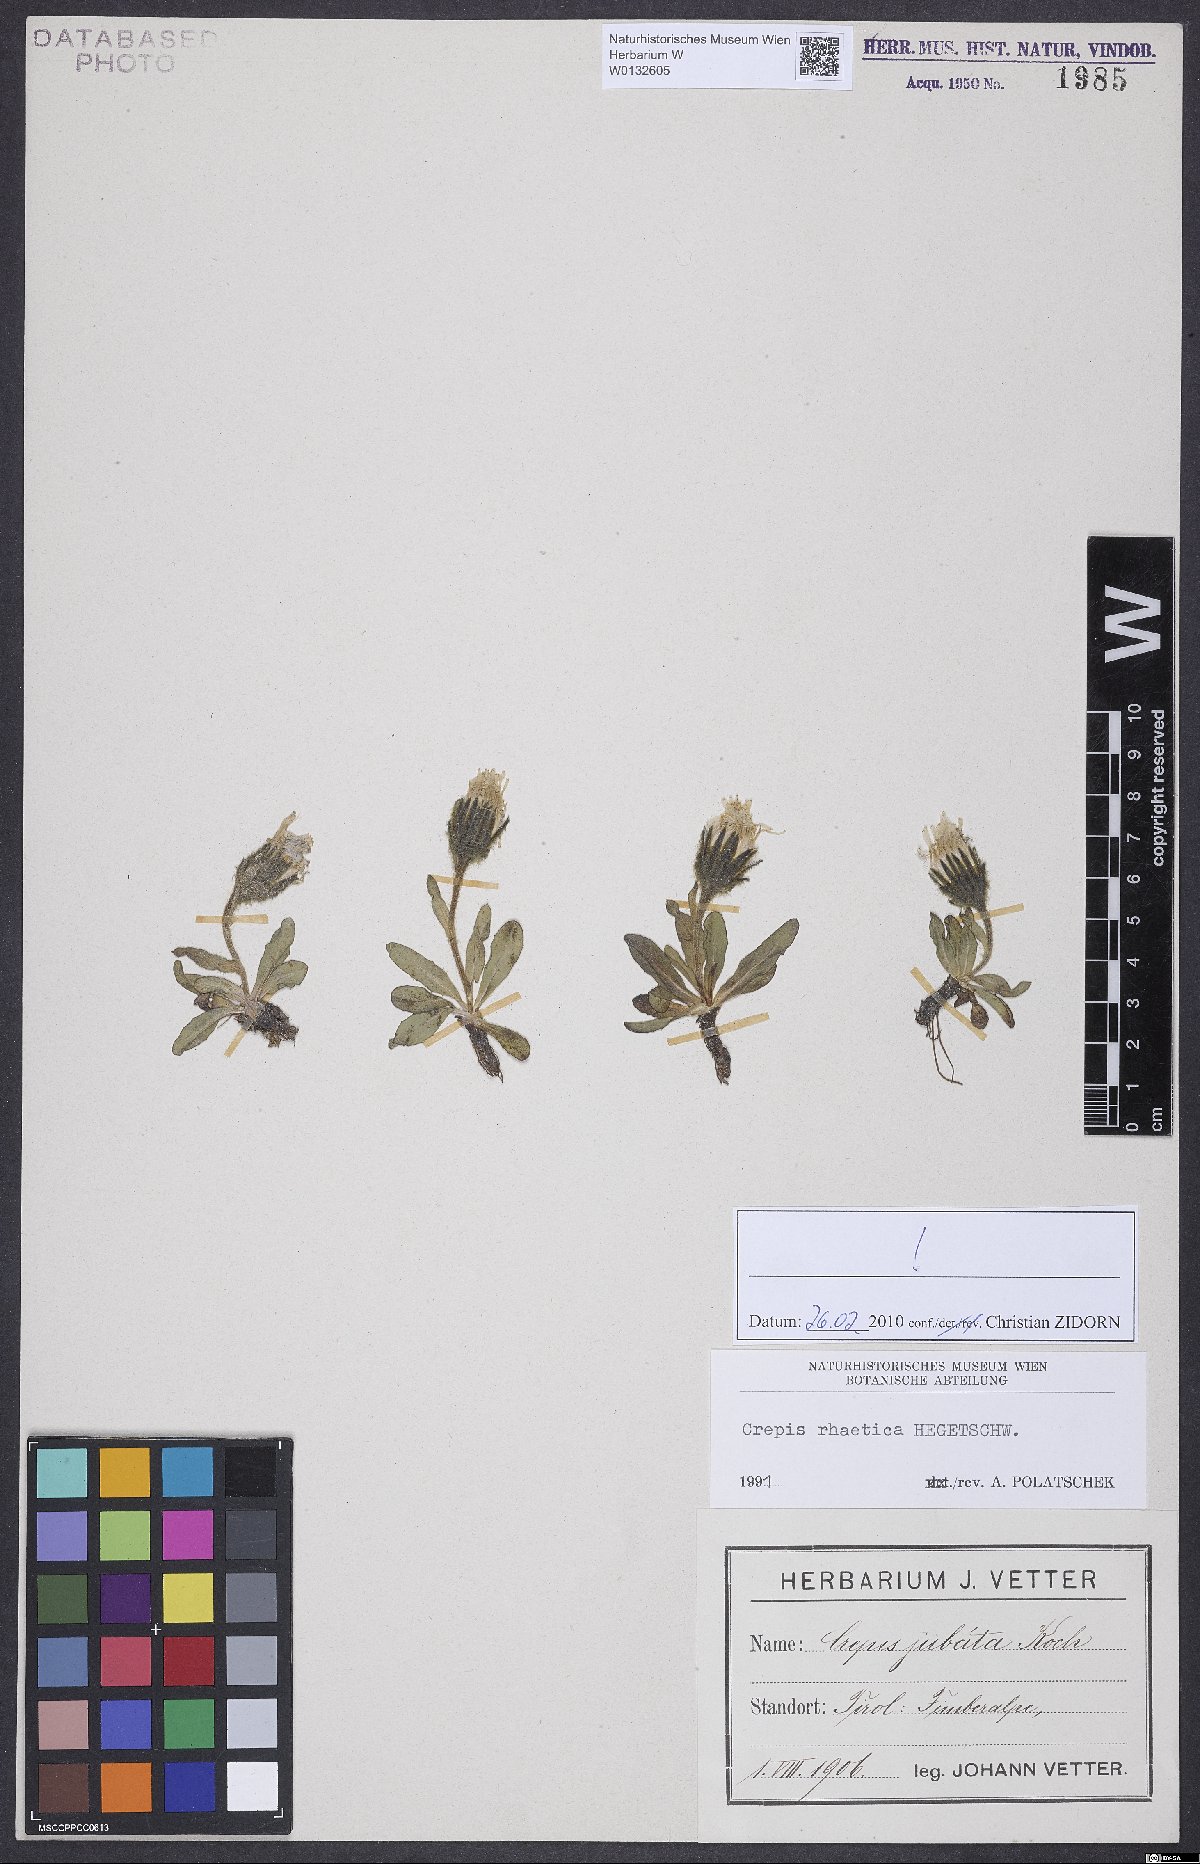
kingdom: Plantae
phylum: Tracheophyta
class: Magnoliopsida
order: Asterales
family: Asteraceae
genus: Crepis
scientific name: Crepis rhaetica
